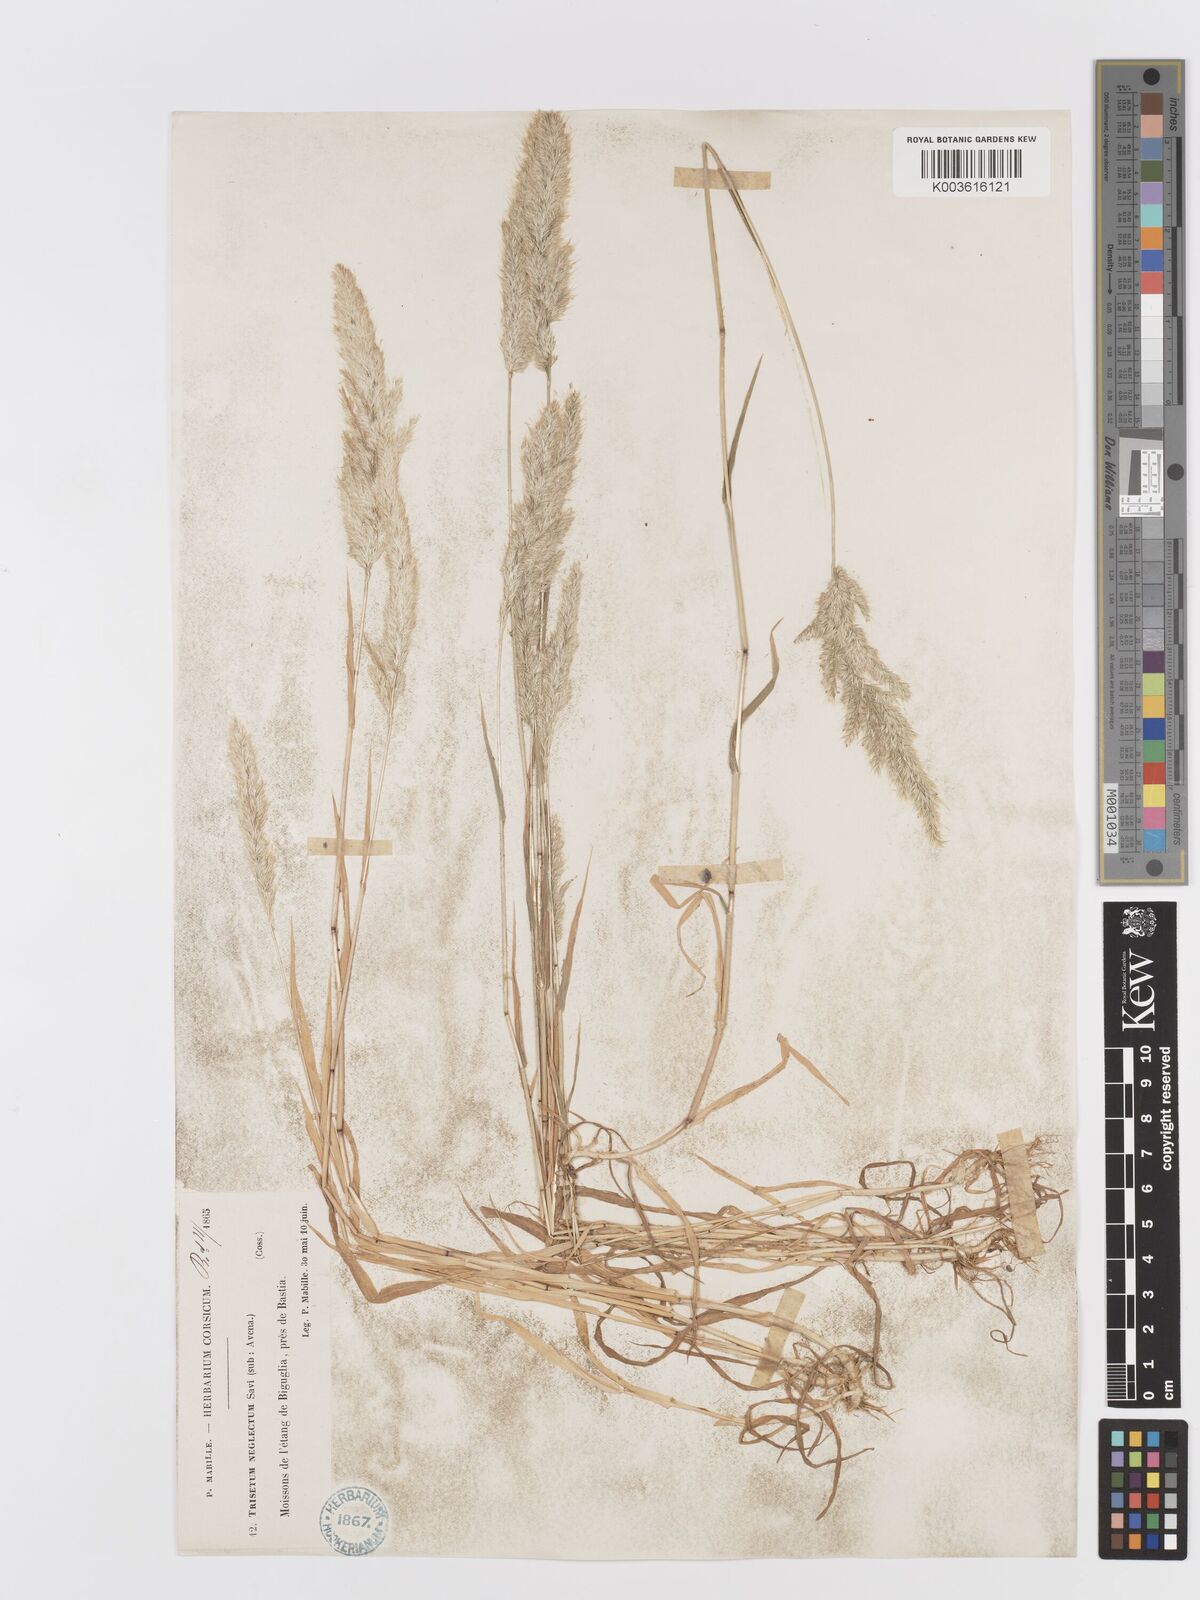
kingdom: Plantae
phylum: Tracheophyta
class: Liliopsida
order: Poales
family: Poaceae
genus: Trisetaria
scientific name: Trisetaria panicea
